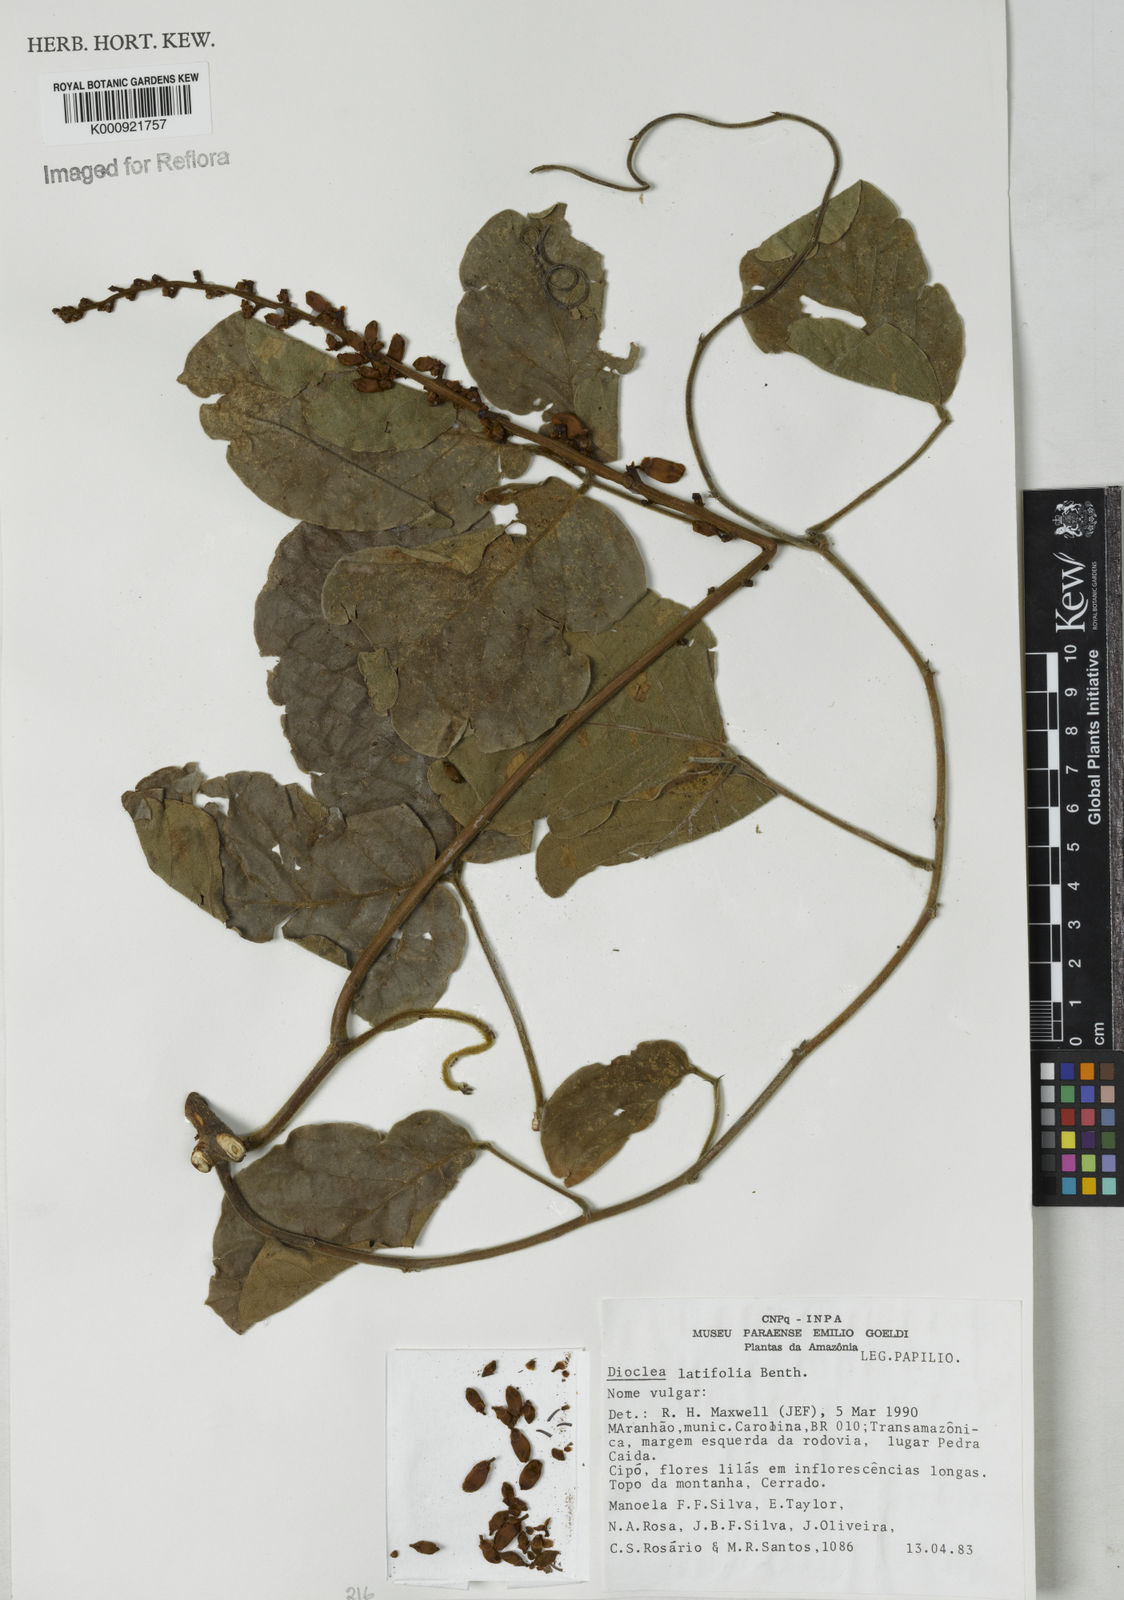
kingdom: Plantae
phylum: Tracheophyta
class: Magnoliopsida
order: Fabales
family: Fabaceae
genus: Macropsychanthus
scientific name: Macropsychanthus latifolius
